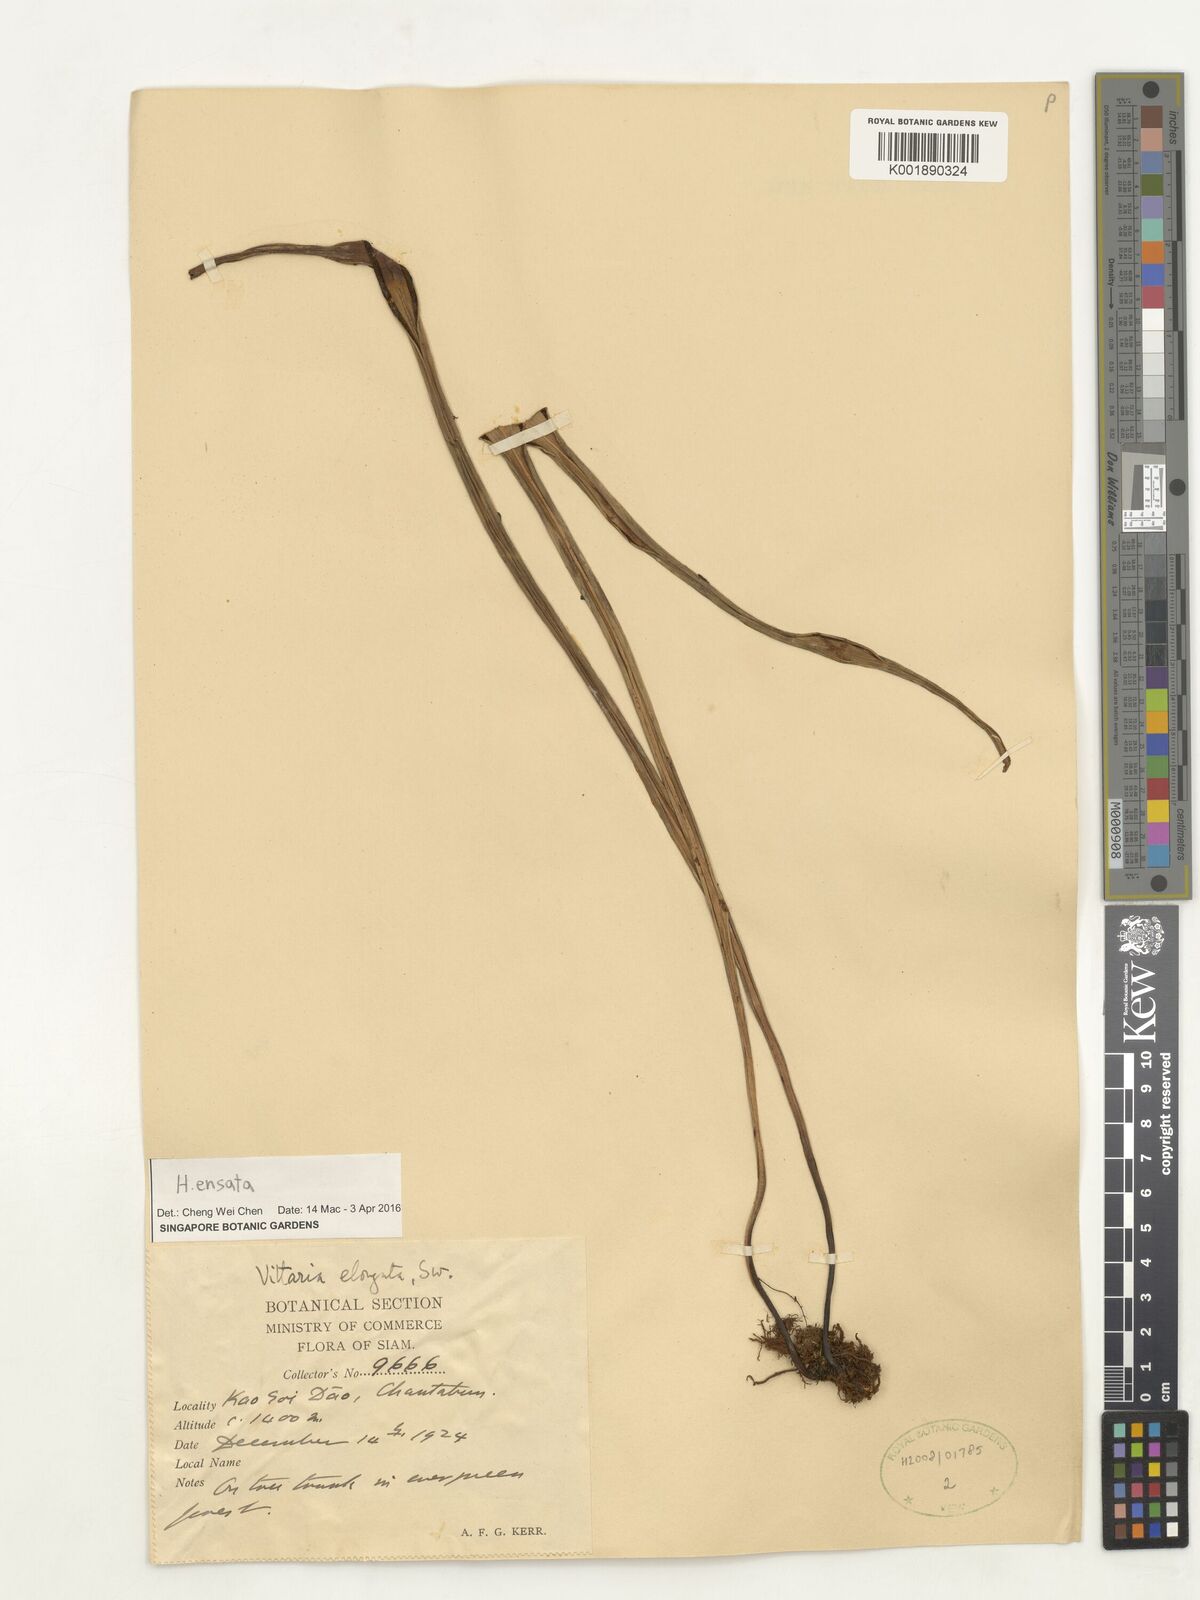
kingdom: Plantae
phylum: Tracheophyta
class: Polypodiopsida
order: Polypodiales
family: Pteridaceae
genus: Haplopteris
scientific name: Haplopteris ensata
